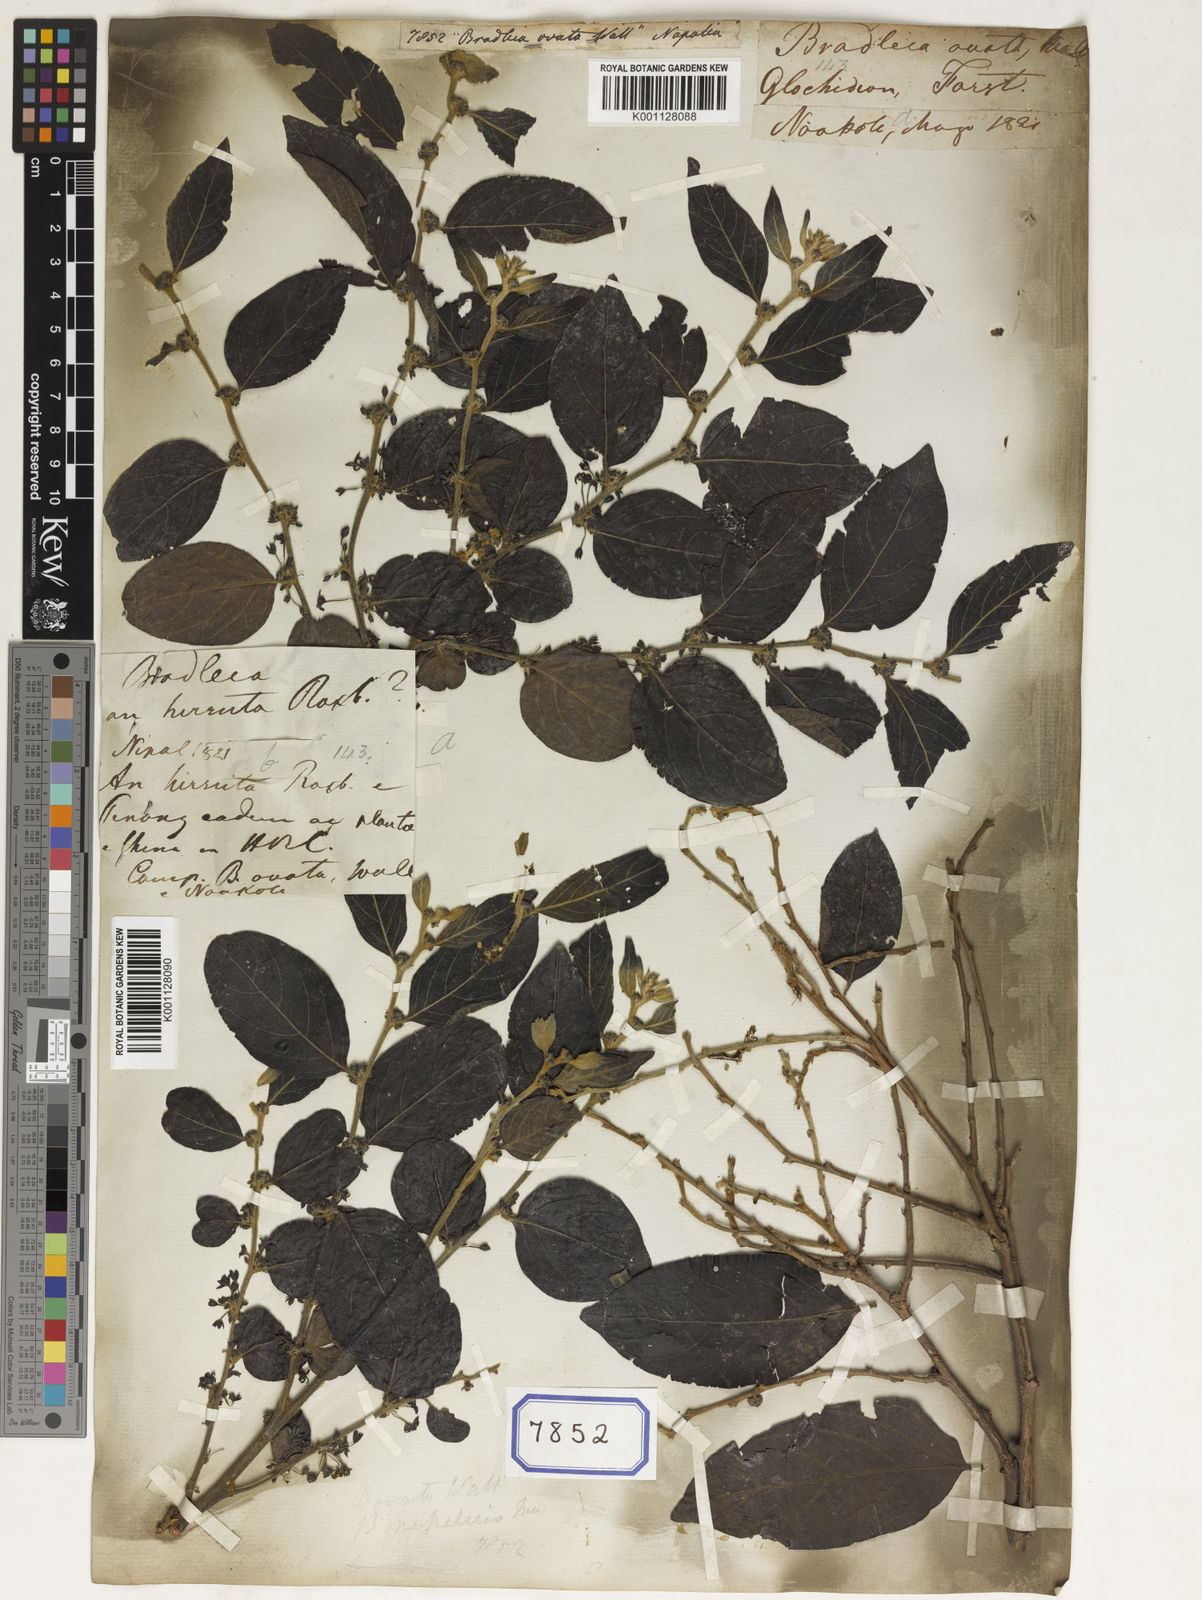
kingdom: Plantae
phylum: Tracheophyta
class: Magnoliopsida
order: Malpighiales
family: Euphorbiaceae
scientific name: Euphorbiaceae
